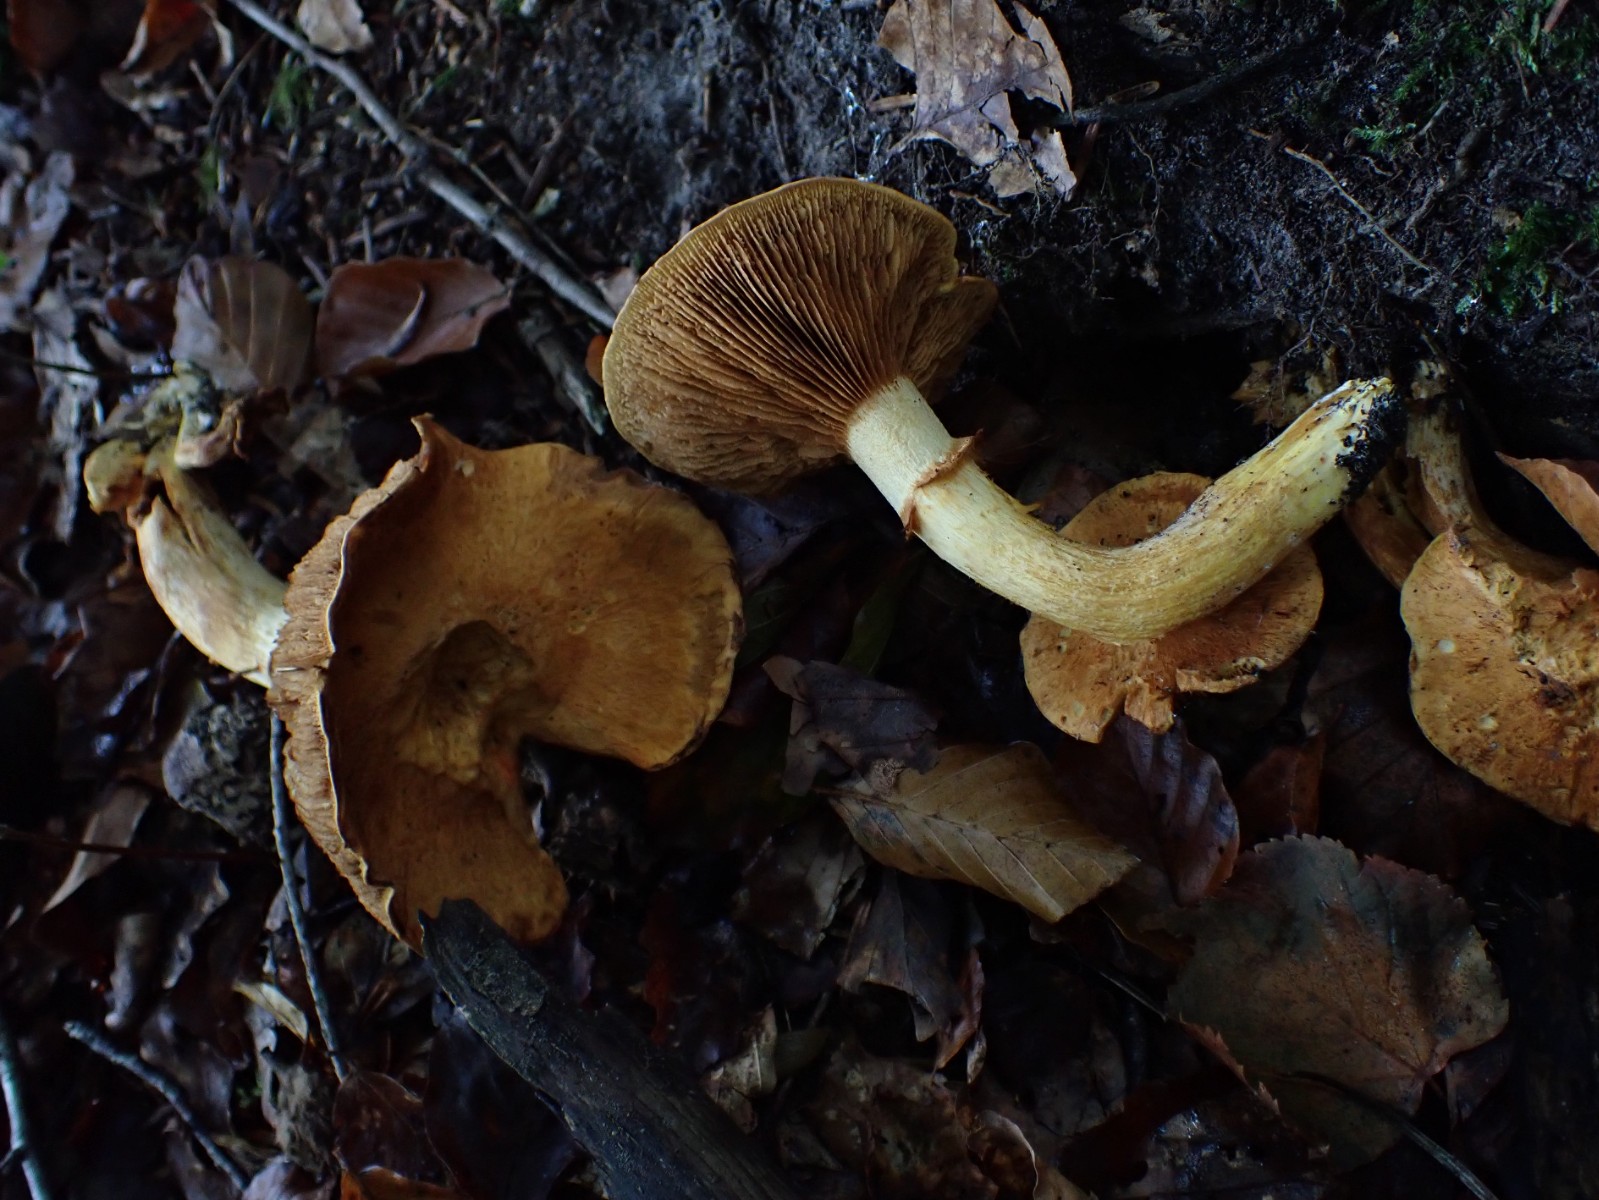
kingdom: Fungi
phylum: Basidiomycota
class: Agaricomycetes
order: Agaricales
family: Hymenogastraceae
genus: Gymnopilus
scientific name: Gymnopilus spectabilis
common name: fibret flammehat
